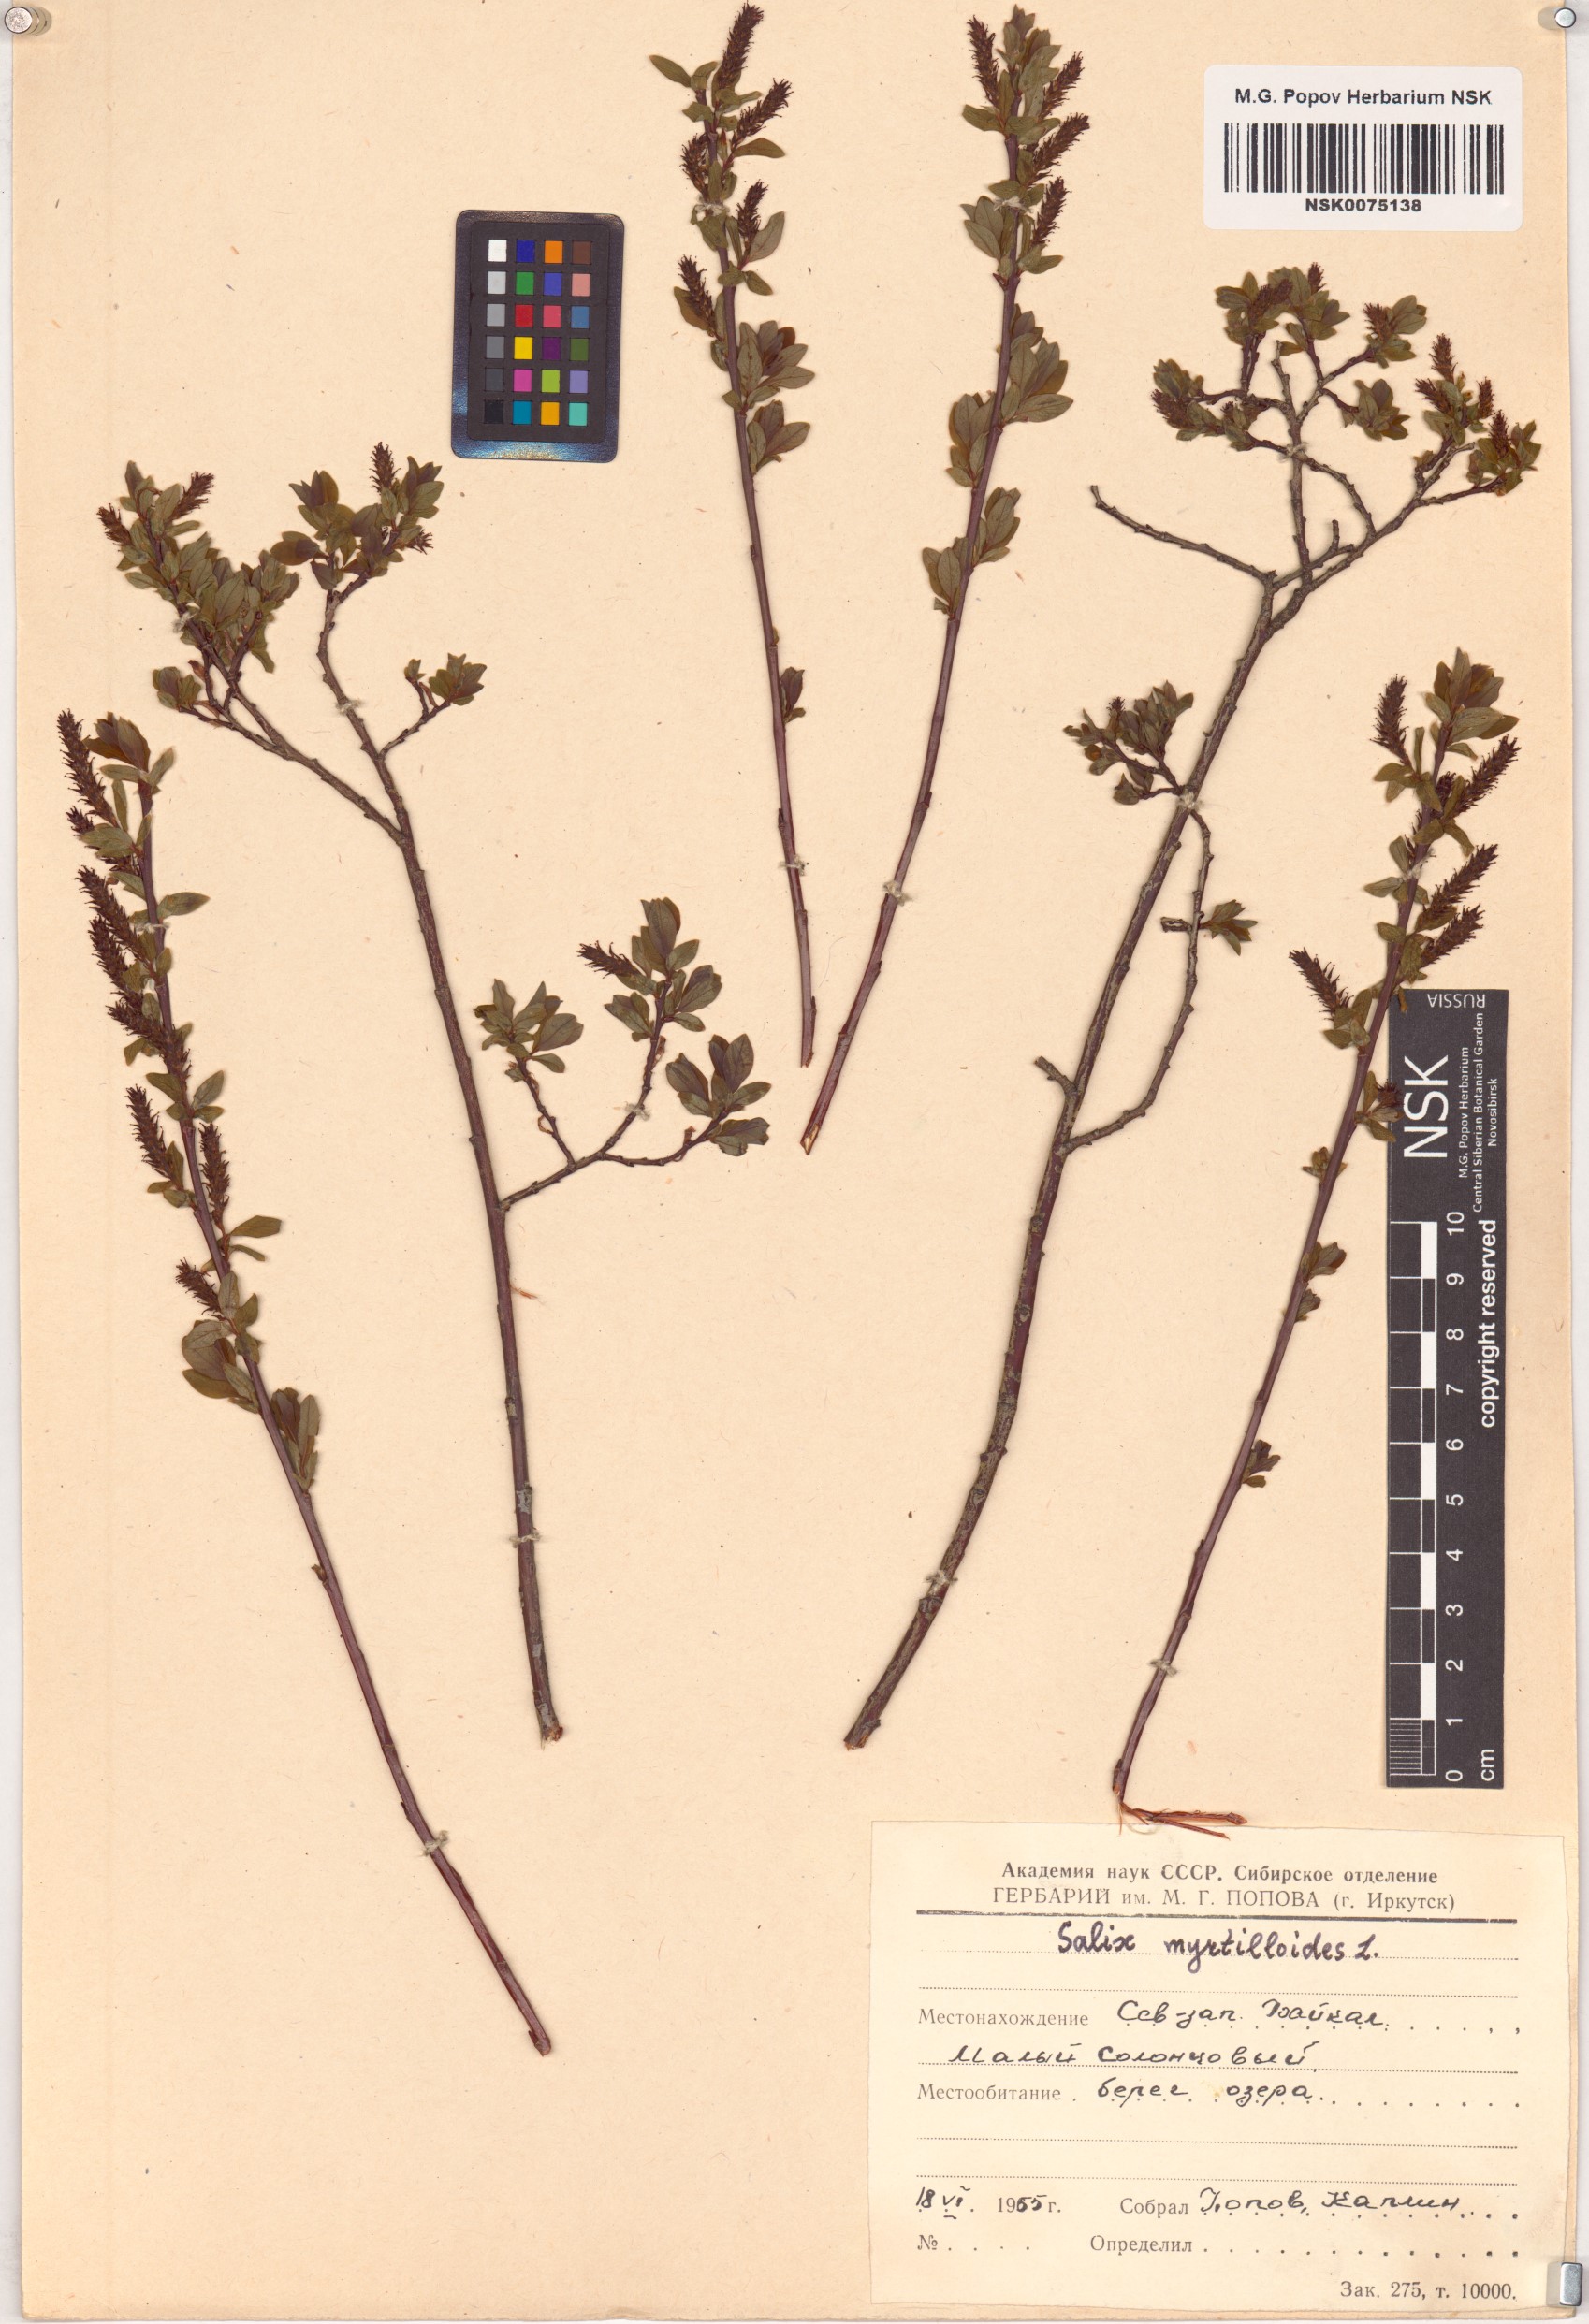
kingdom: Plantae
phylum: Tracheophyta
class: Magnoliopsida
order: Malpighiales
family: Salicaceae
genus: Salix
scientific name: Salix myrtilloides
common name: Myrtle-leaved willow
